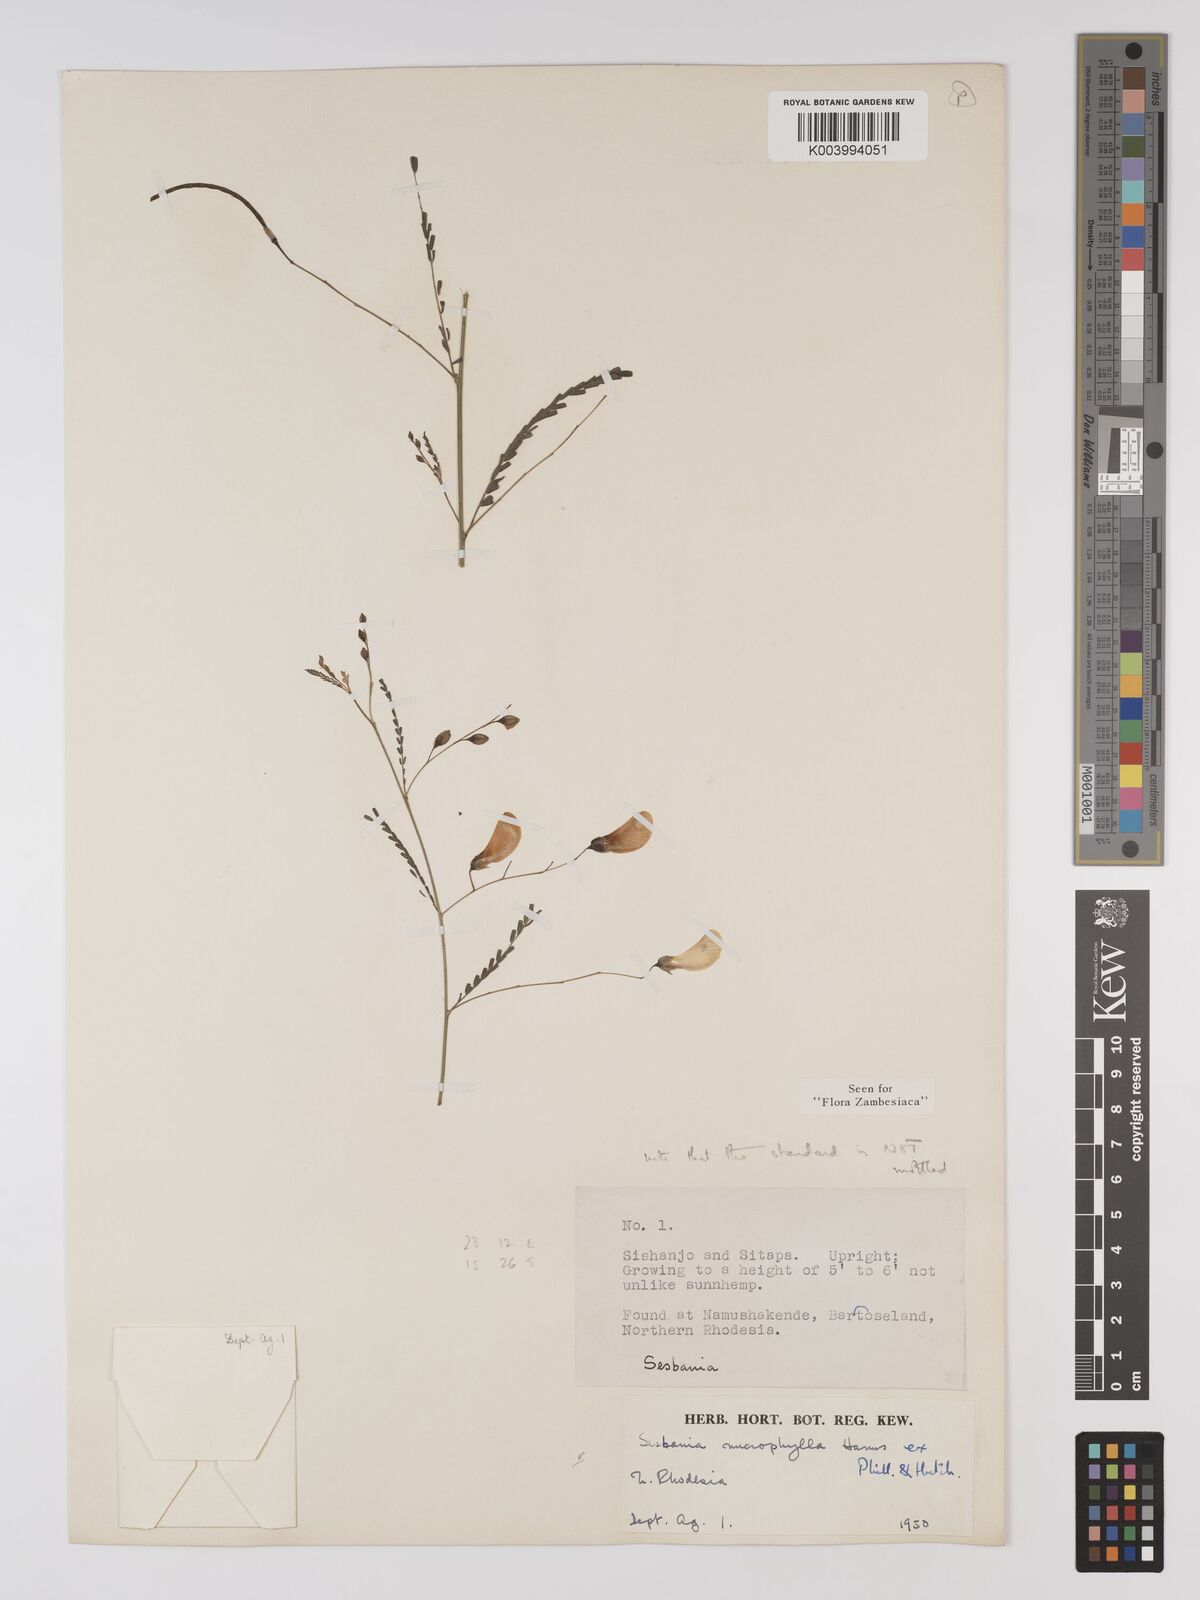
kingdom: Plantae
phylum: Tracheophyta
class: Magnoliopsida
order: Fabales
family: Fabaceae
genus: Sesbania
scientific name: Sesbania microphylla
